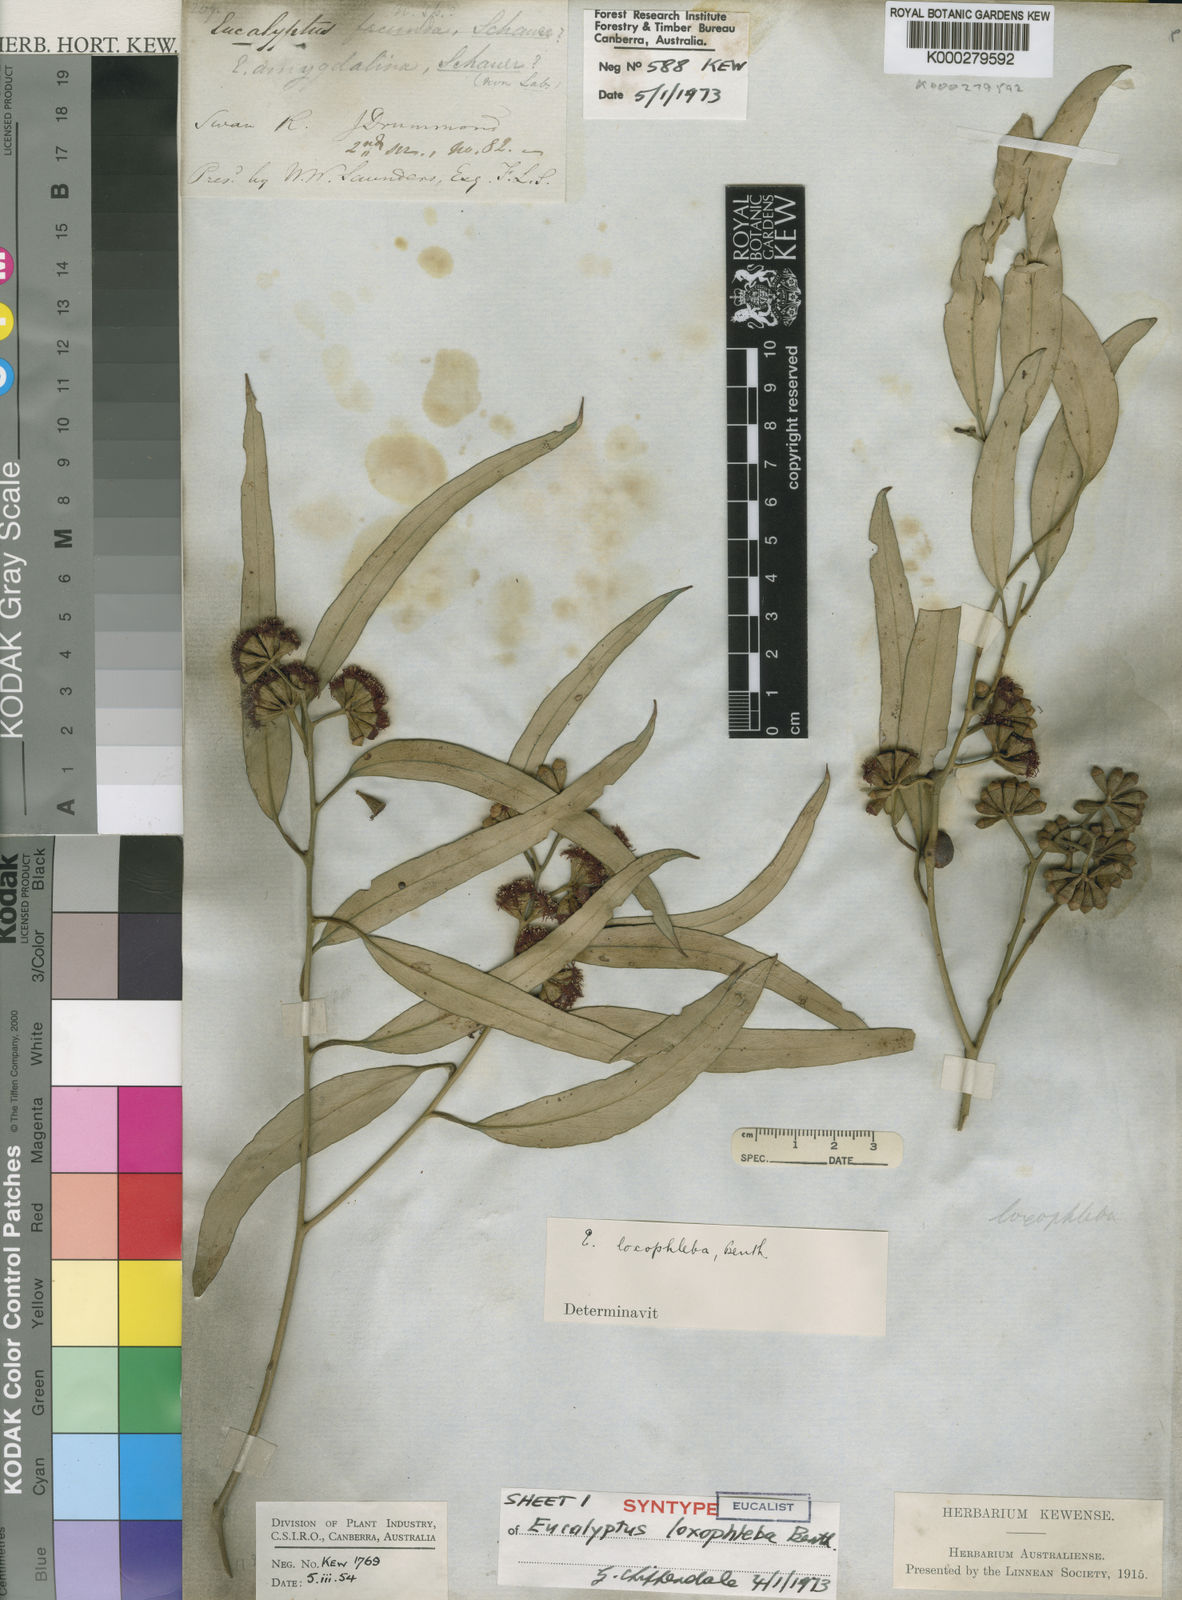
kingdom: Plantae
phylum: Tracheophyta
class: Magnoliopsida
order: Myrtales
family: Myrtaceae
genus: Eucalyptus
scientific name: Eucalyptus loxophleba
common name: York gum
